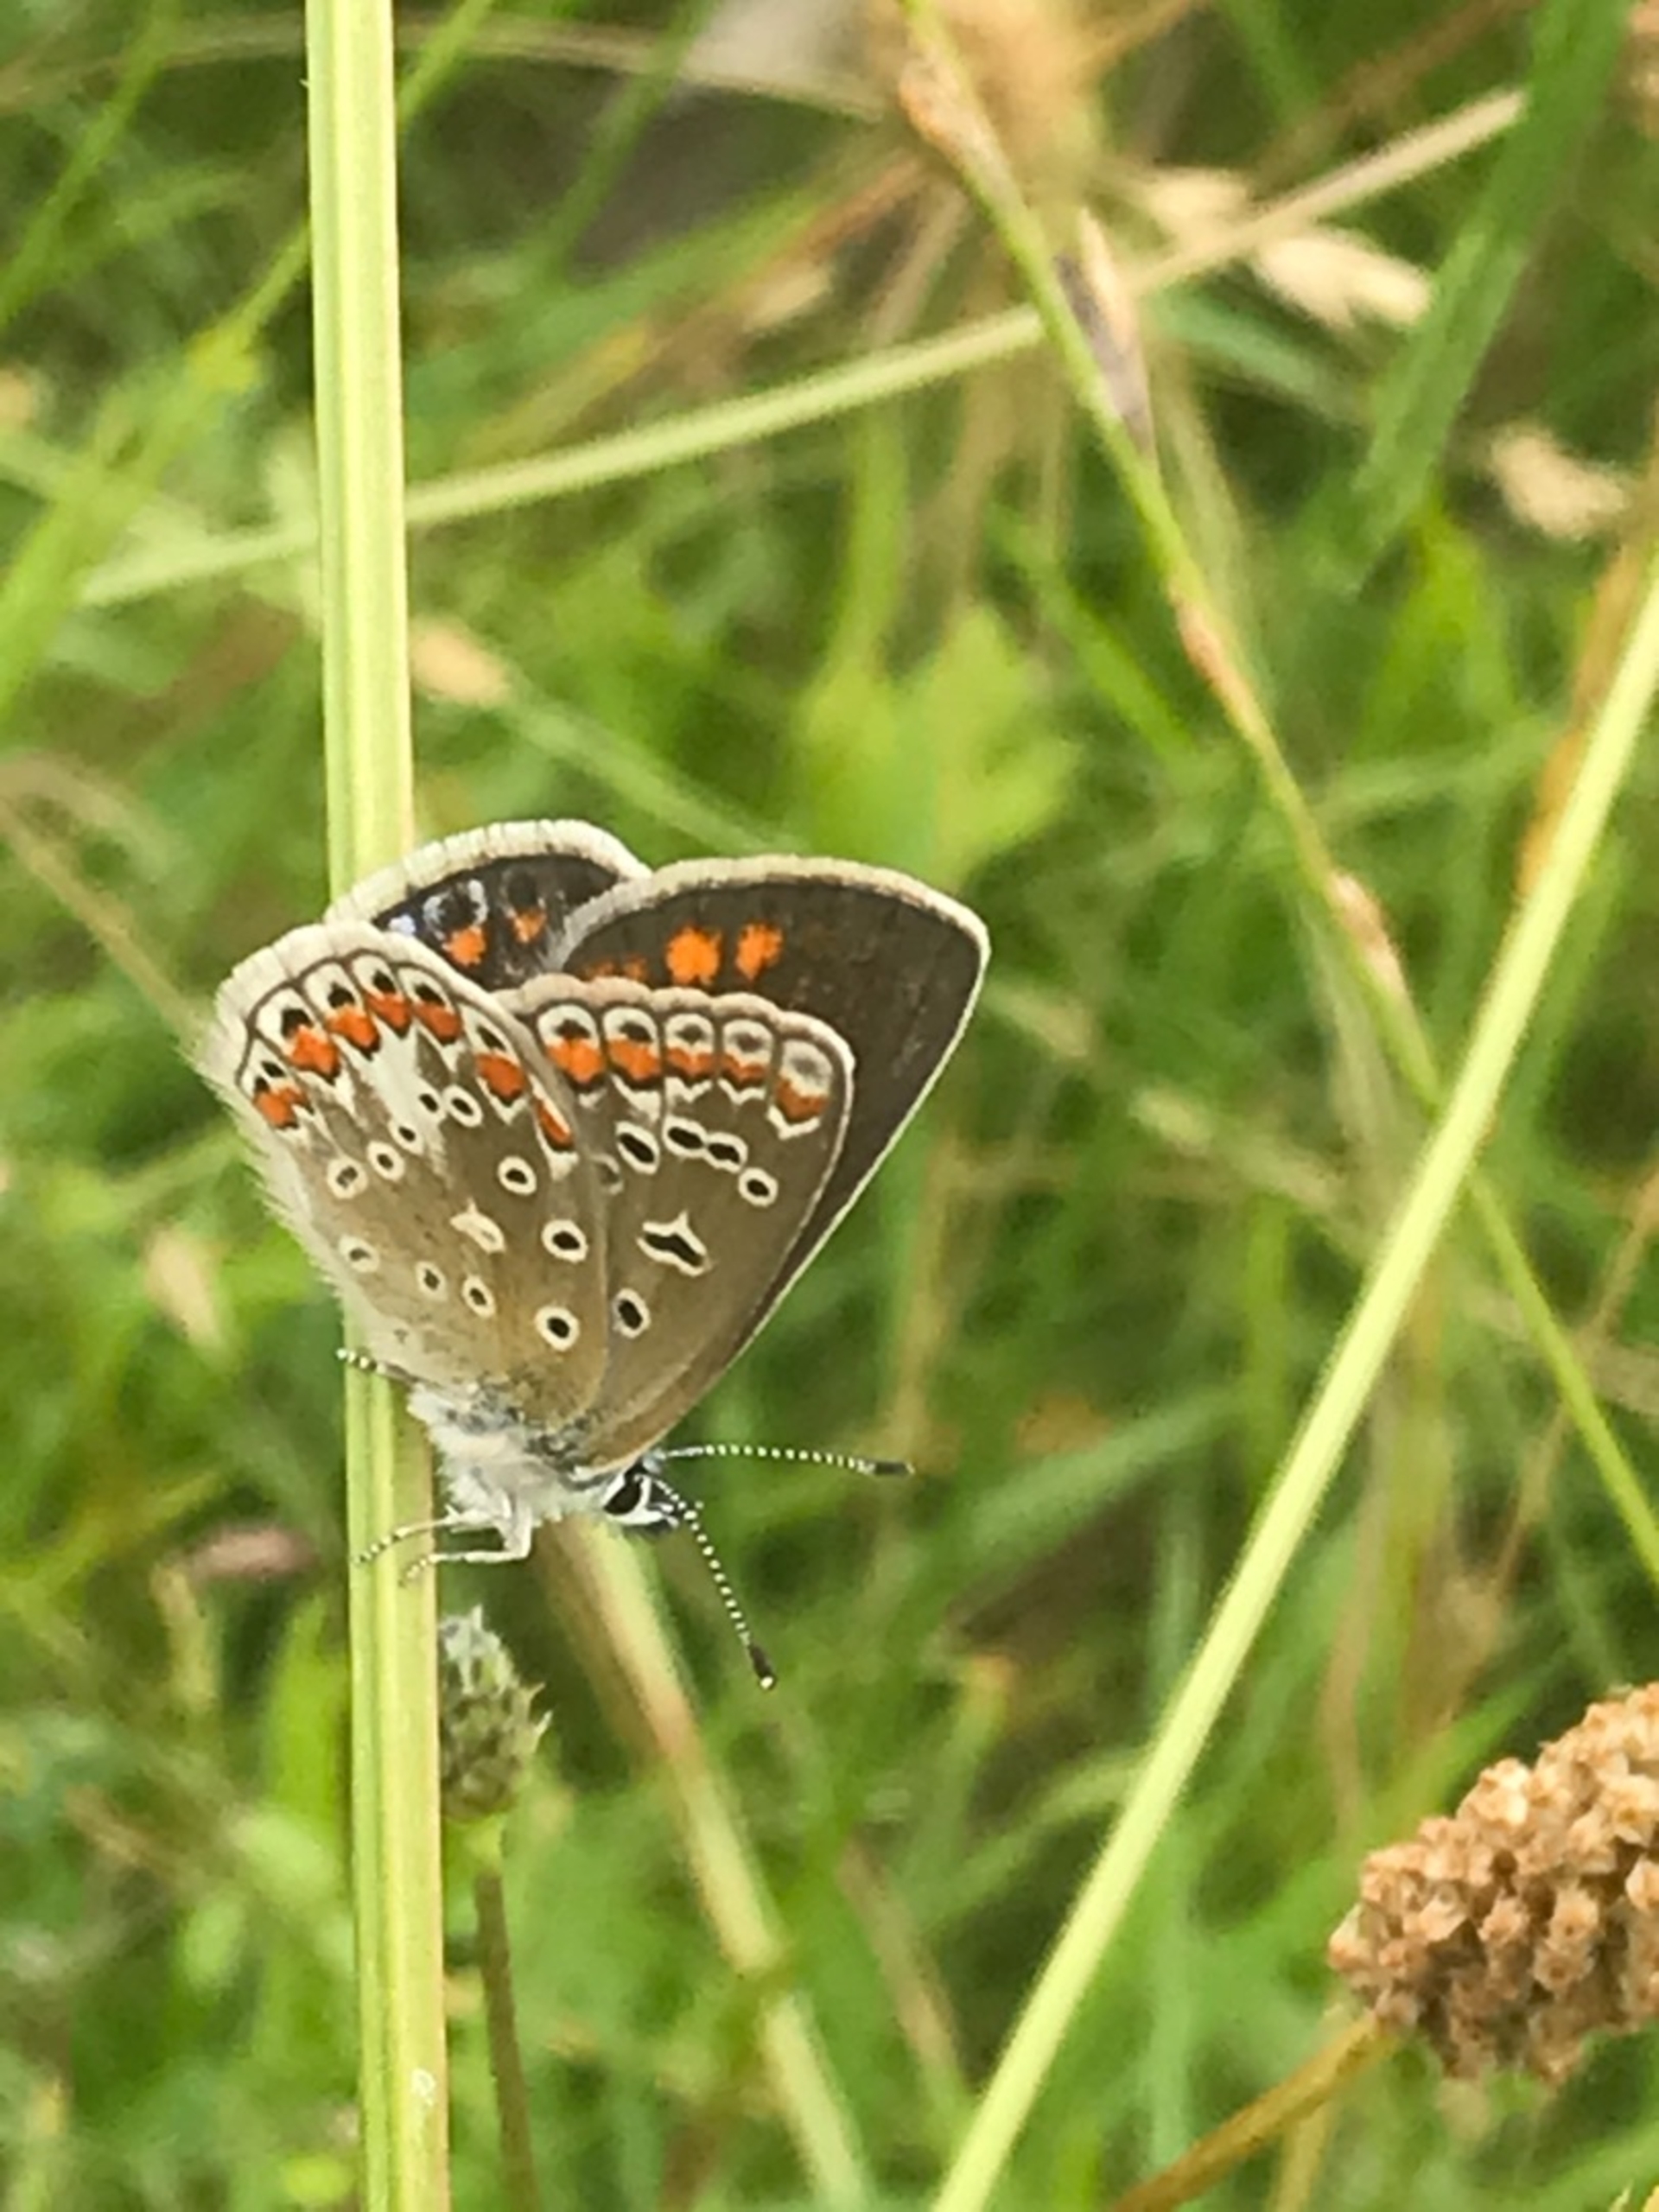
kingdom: Animalia
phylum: Arthropoda
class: Insecta
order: Lepidoptera
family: Lycaenidae
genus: Polyommatus
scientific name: Polyommatus icarus
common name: Almindelig blåfugl
